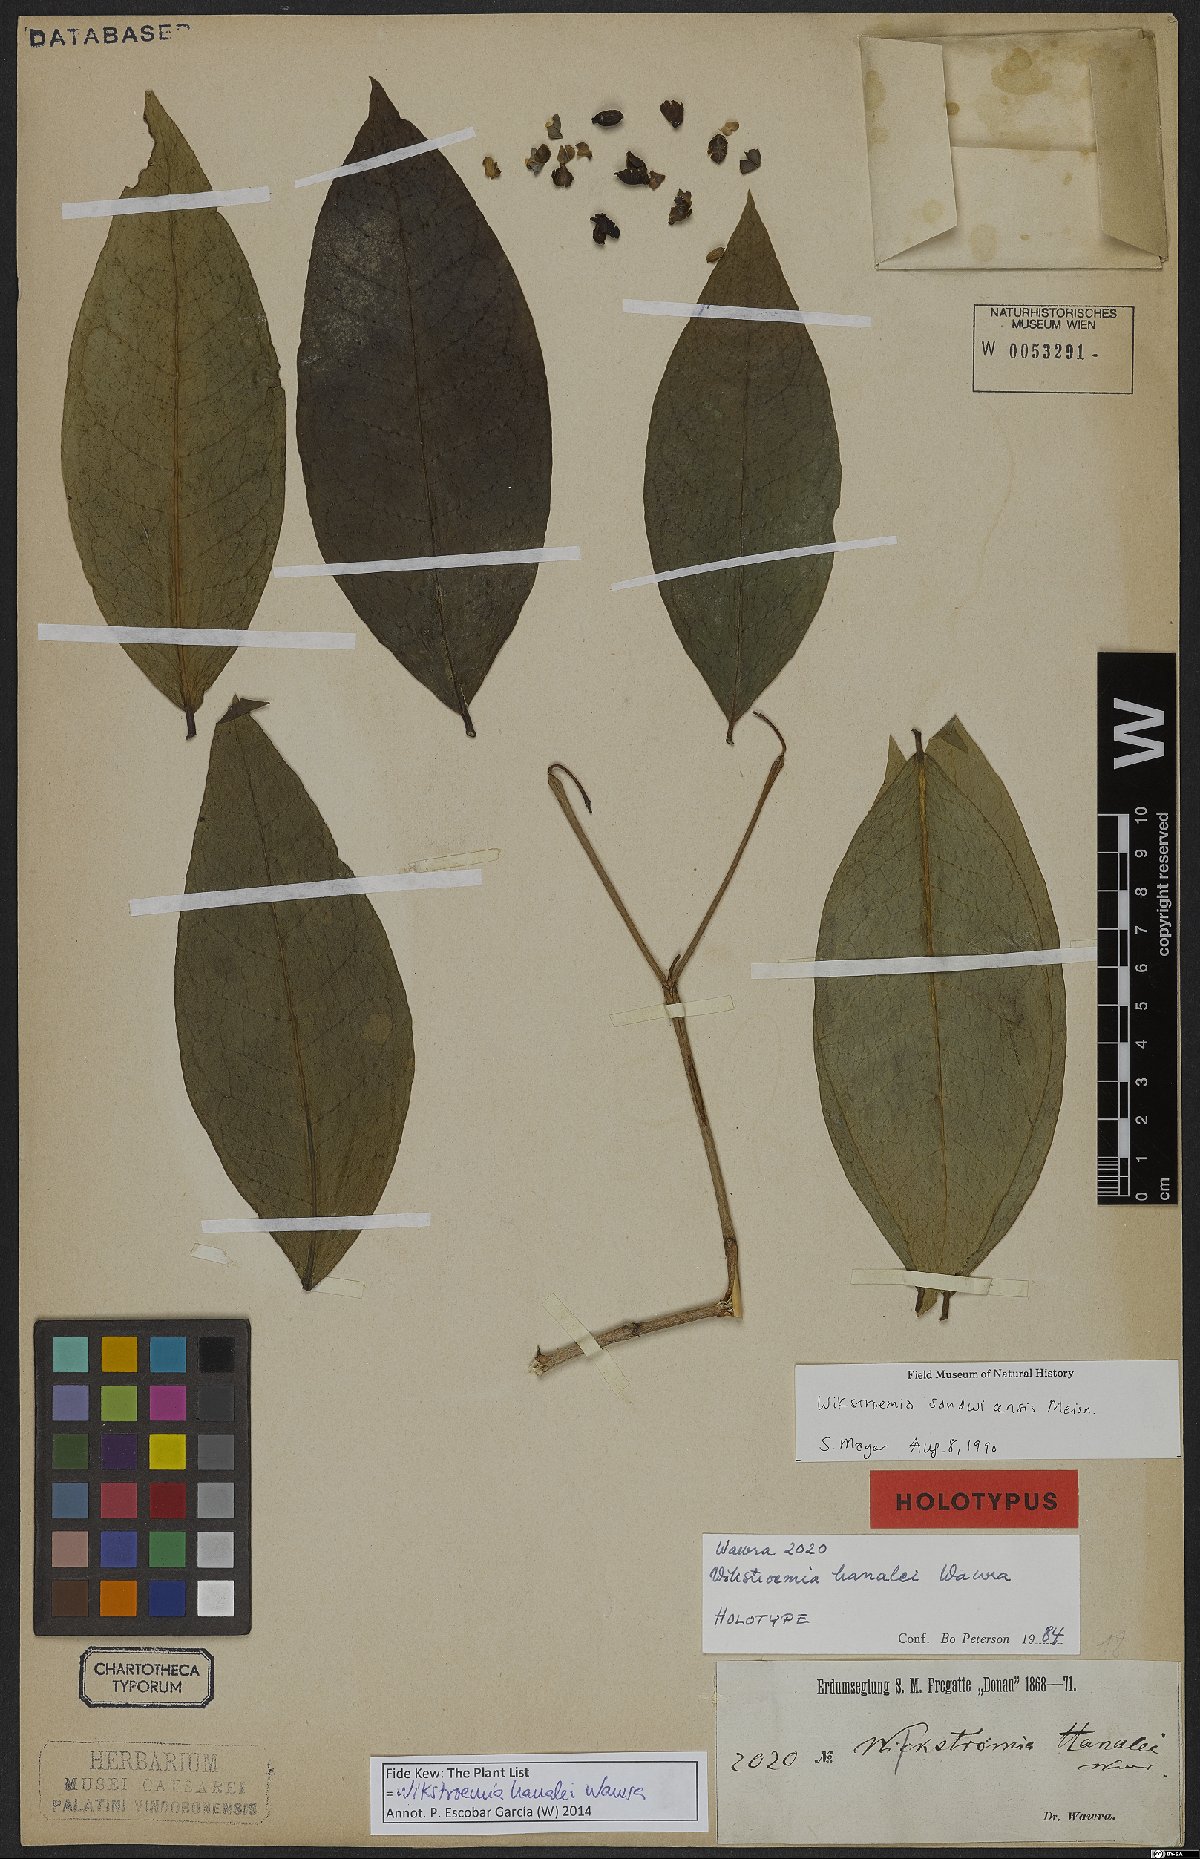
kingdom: Plantae
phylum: Tracheophyta
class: Magnoliopsida
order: Malvales
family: Thymelaeaceae
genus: Wikstroemia
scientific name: Wikstroemia hanalei
